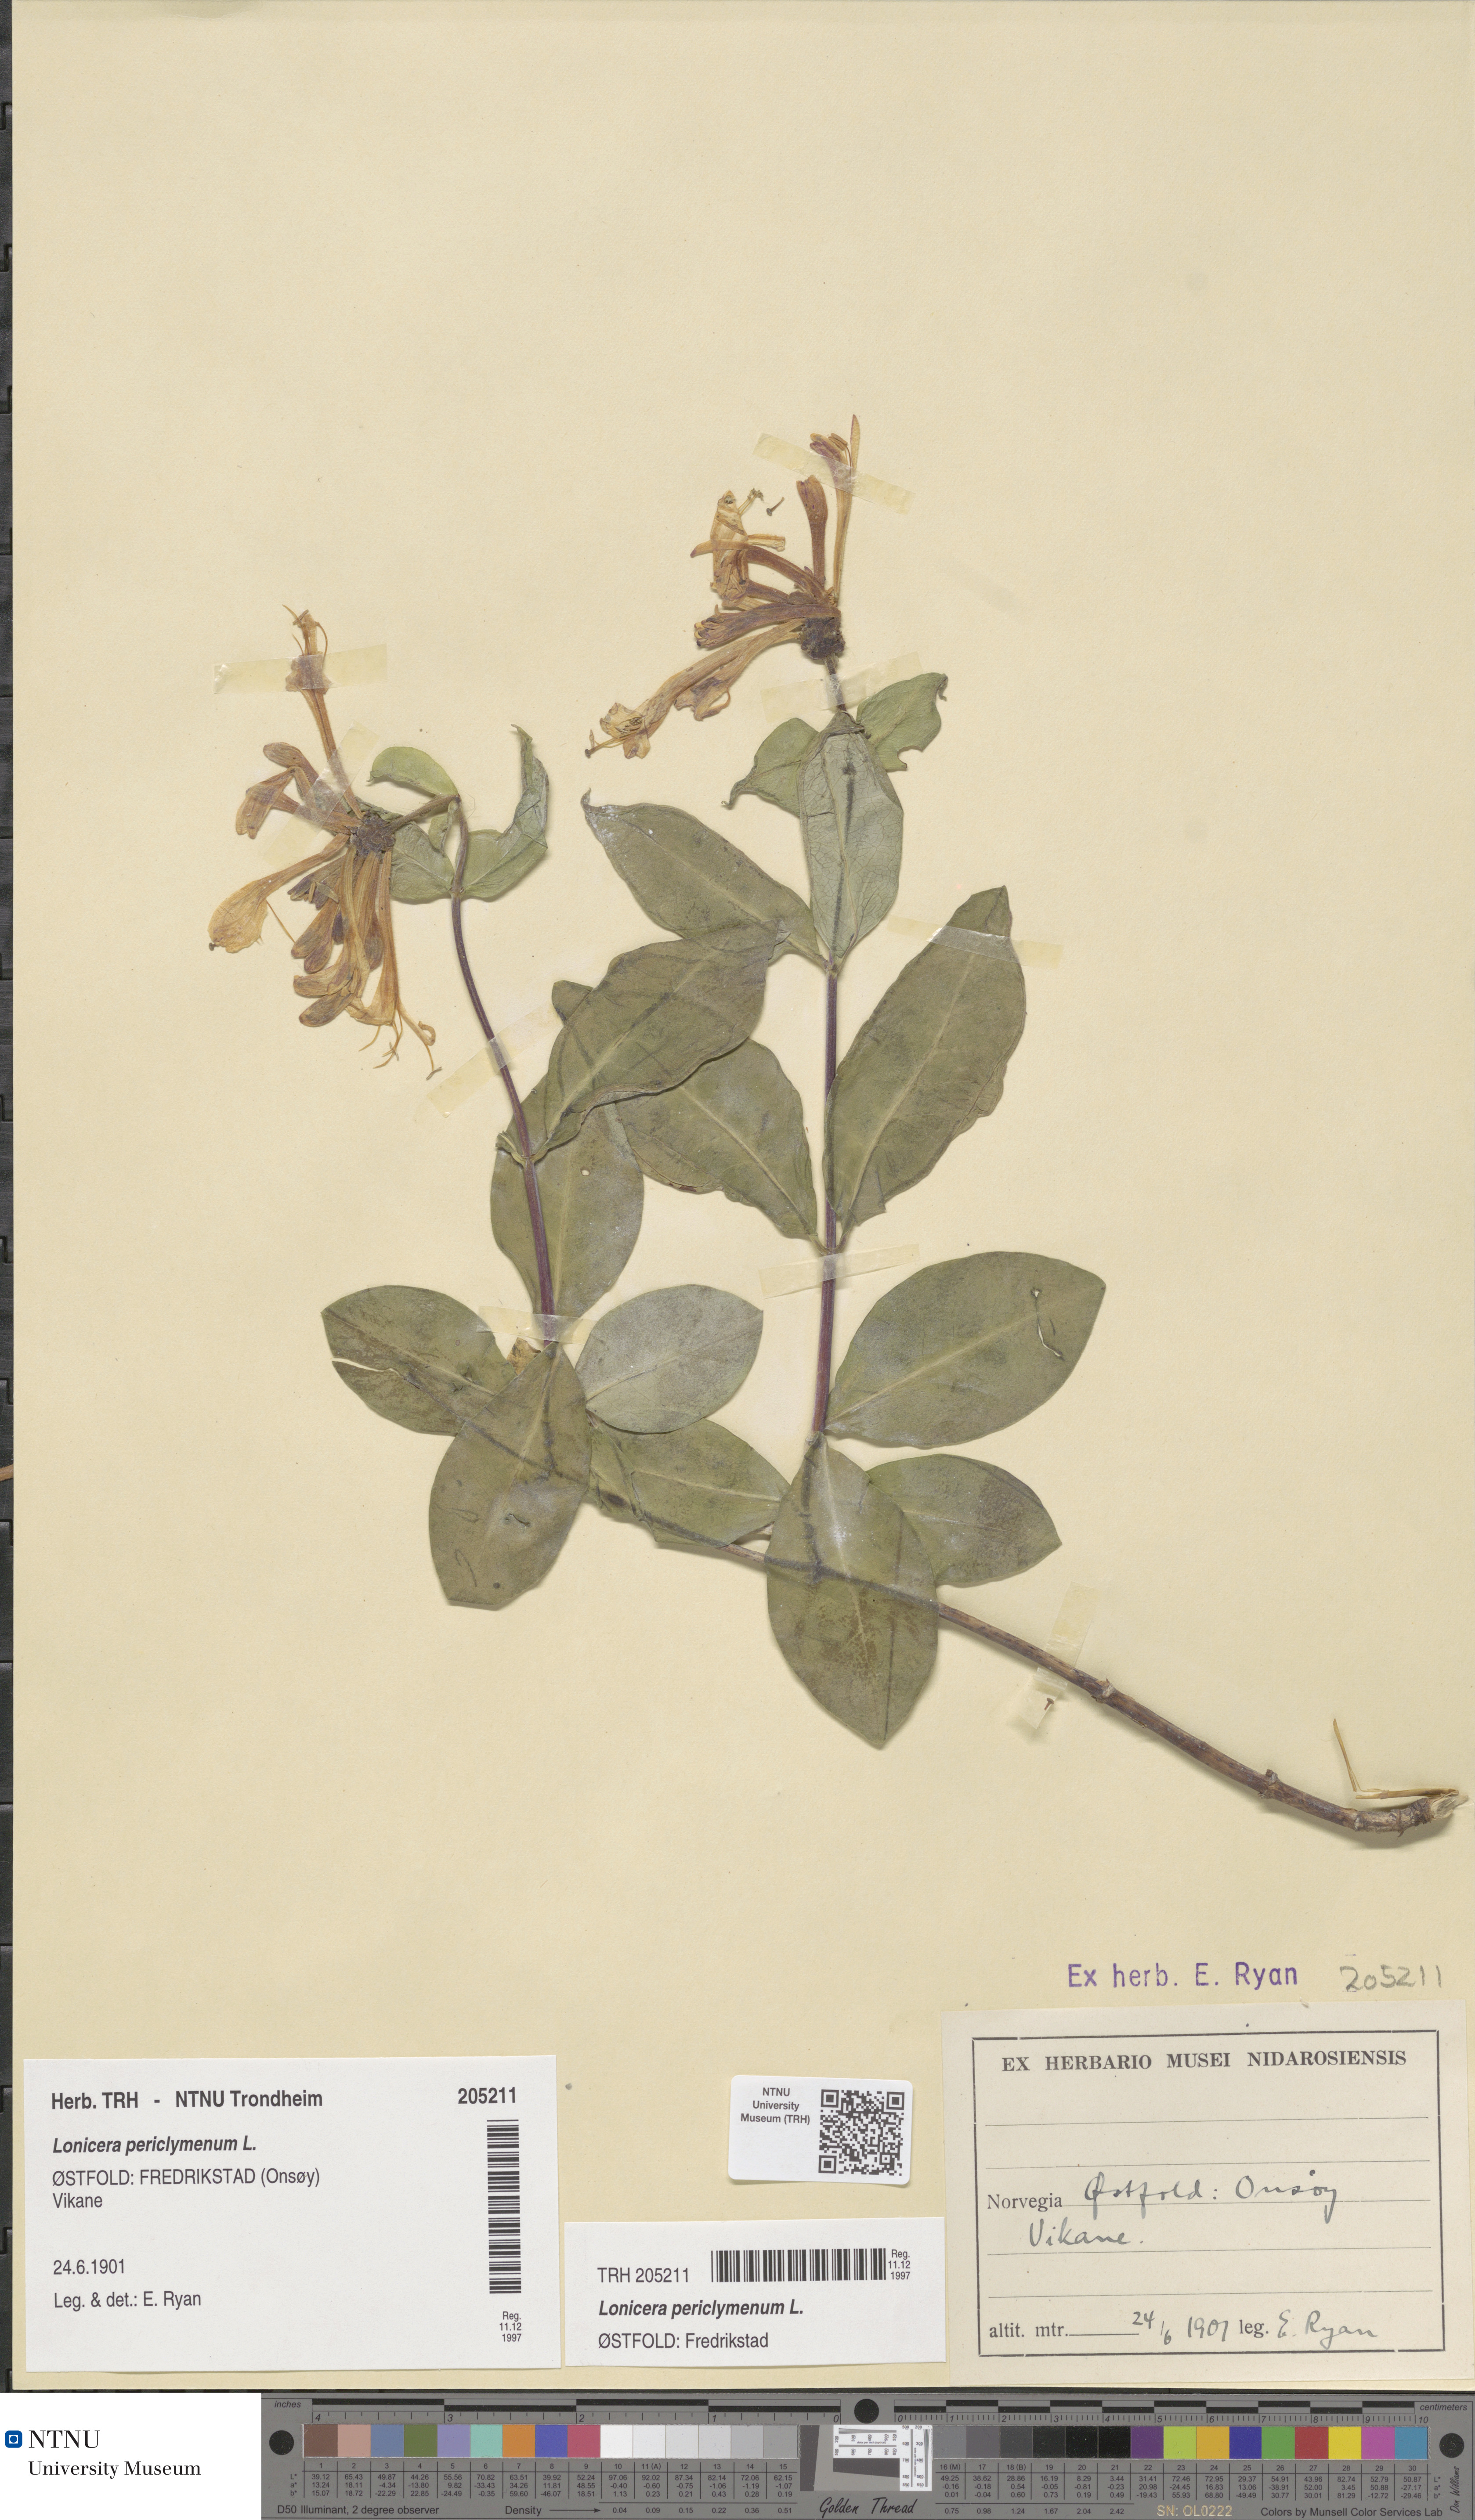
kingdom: Plantae
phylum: Tracheophyta
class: Magnoliopsida
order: Dipsacales
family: Caprifoliaceae
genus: Lonicera
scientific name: Lonicera periclymenum
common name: European honeysuckle
